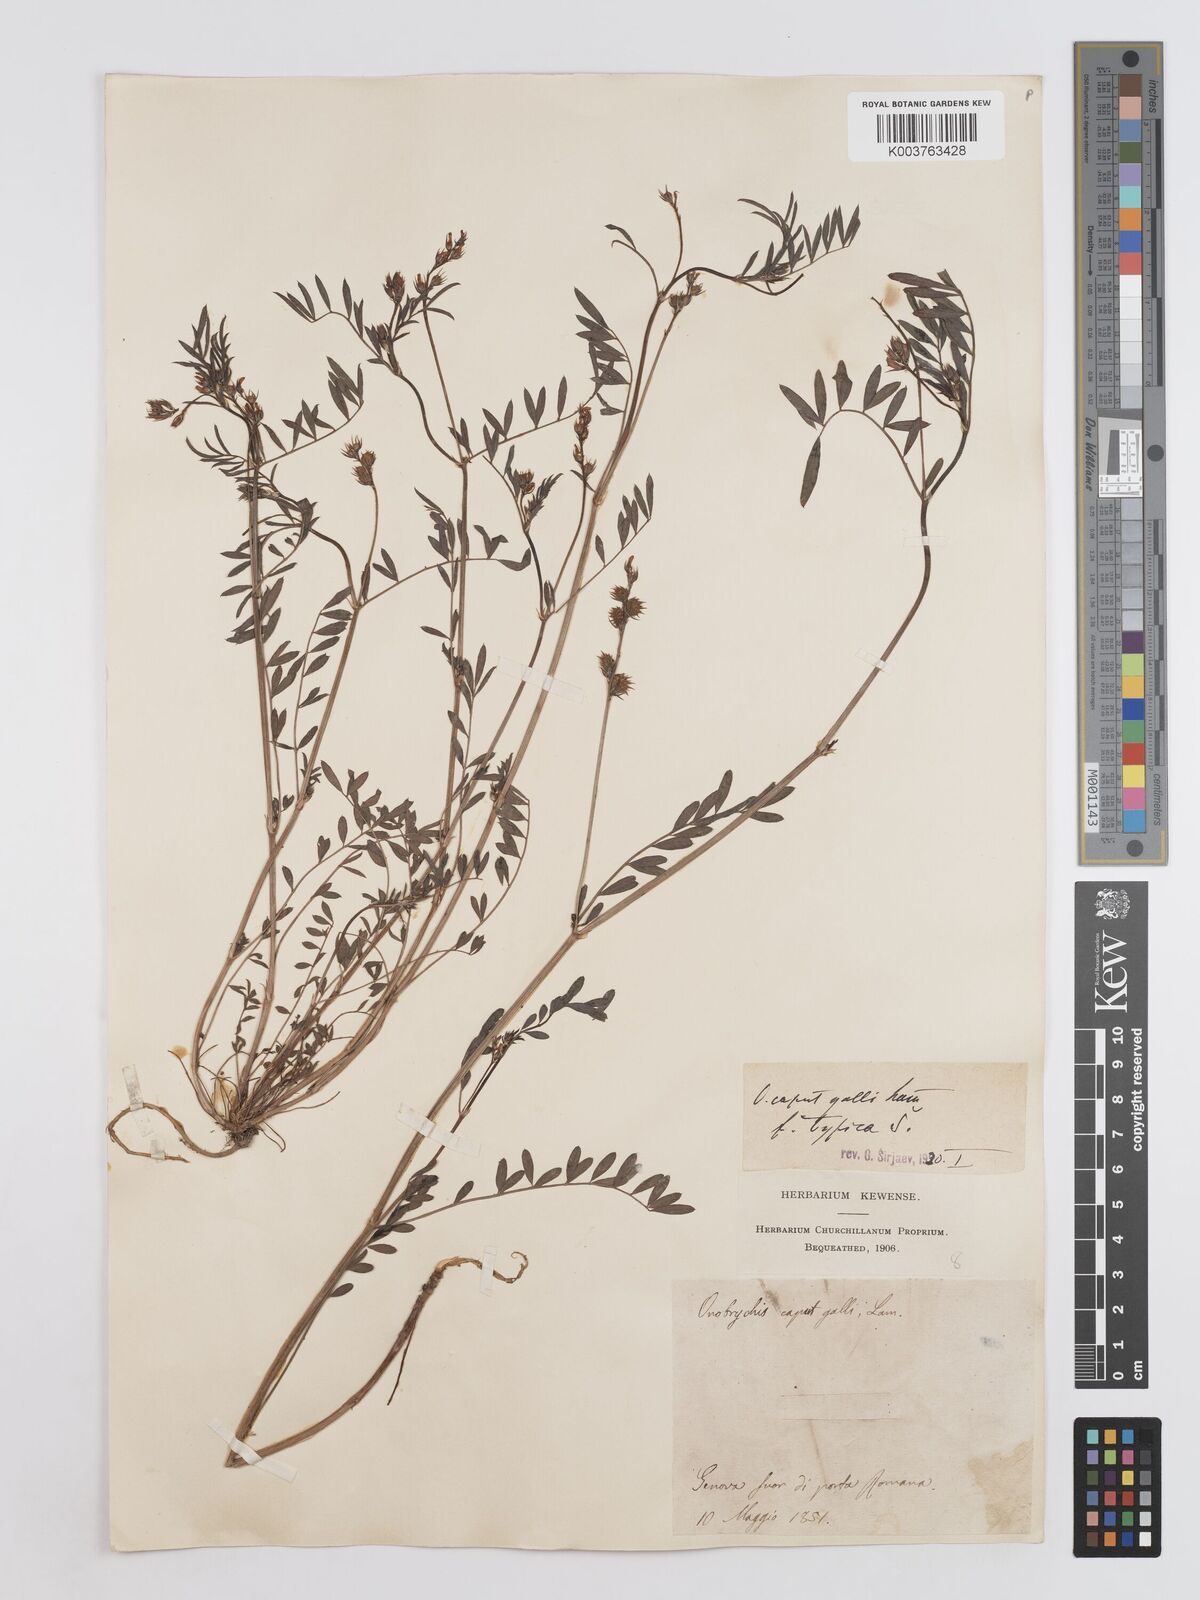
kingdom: Plantae
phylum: Tracheophyta
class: Magnoliopsida
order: Fabales
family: Fabaceae
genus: Onobrychis
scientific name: Onobrychis caput-galli
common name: Cockscomb sainfoin
